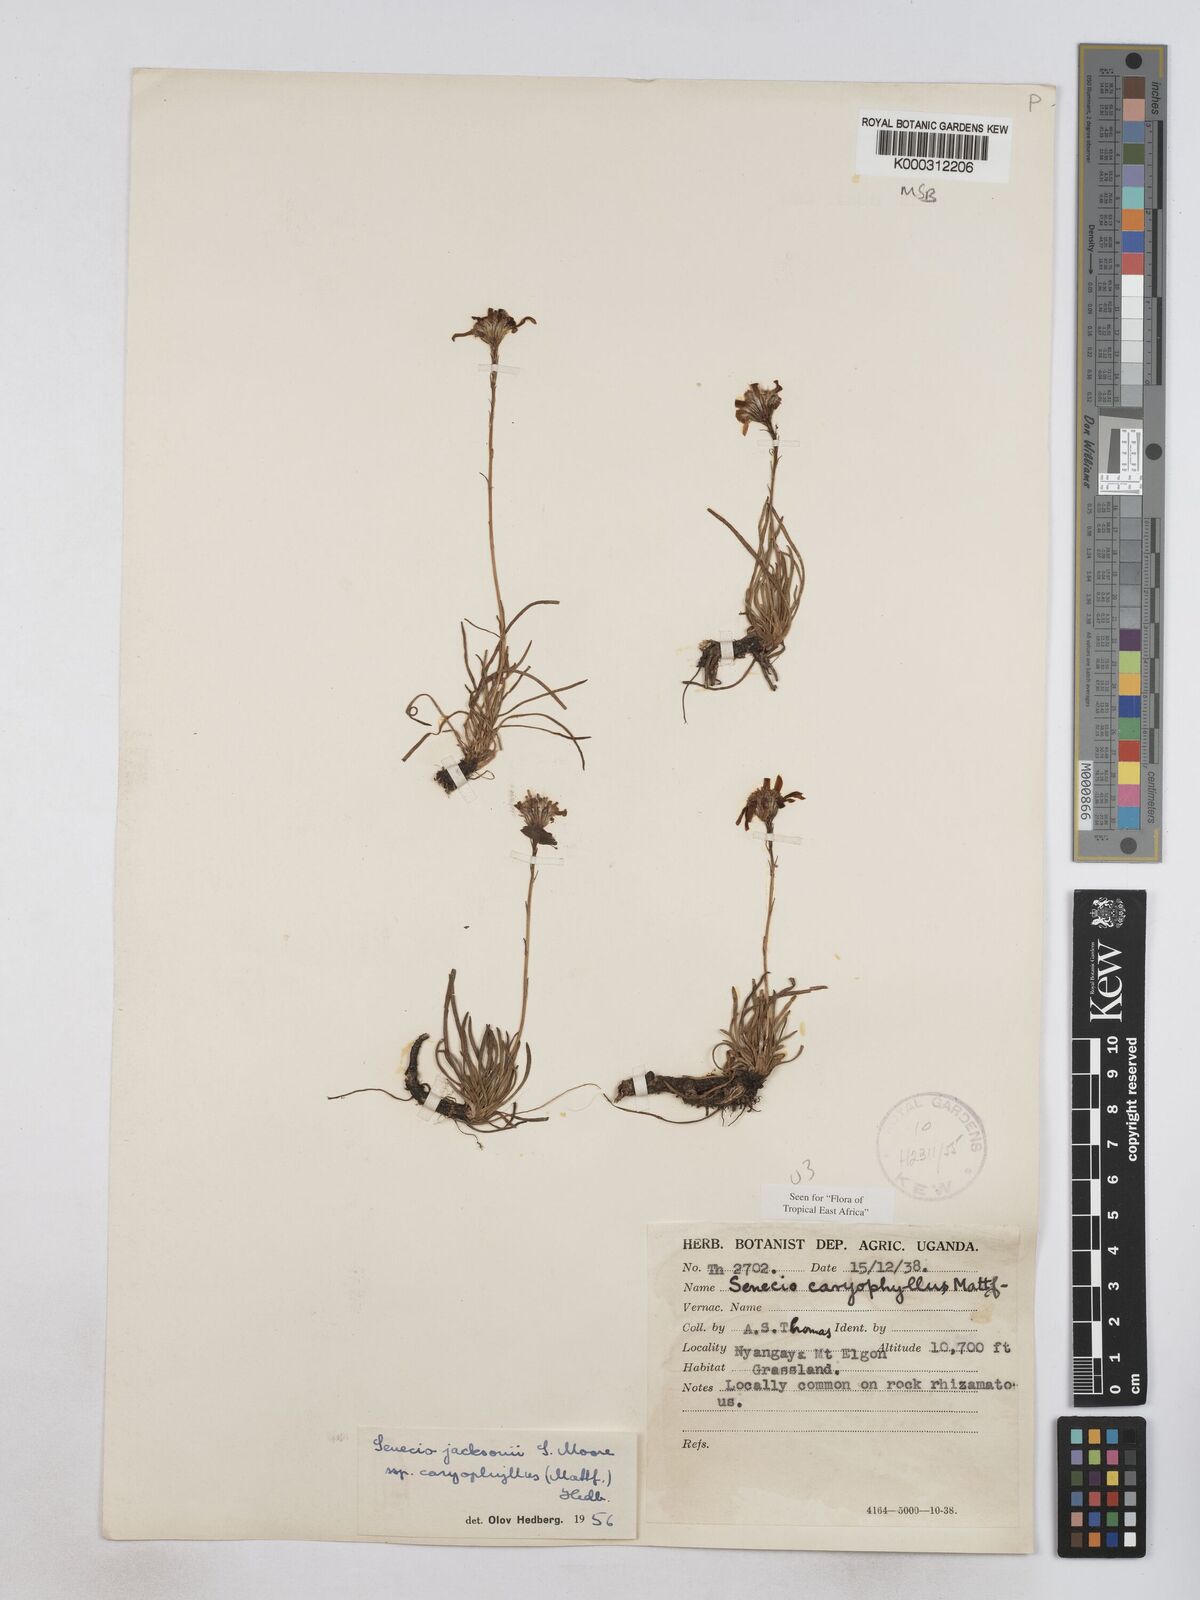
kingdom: Plantae
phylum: Tracheophyta
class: Magnoliopsida
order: Asterales
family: Asteraceae
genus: Senecio
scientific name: Senecio jacksonii
